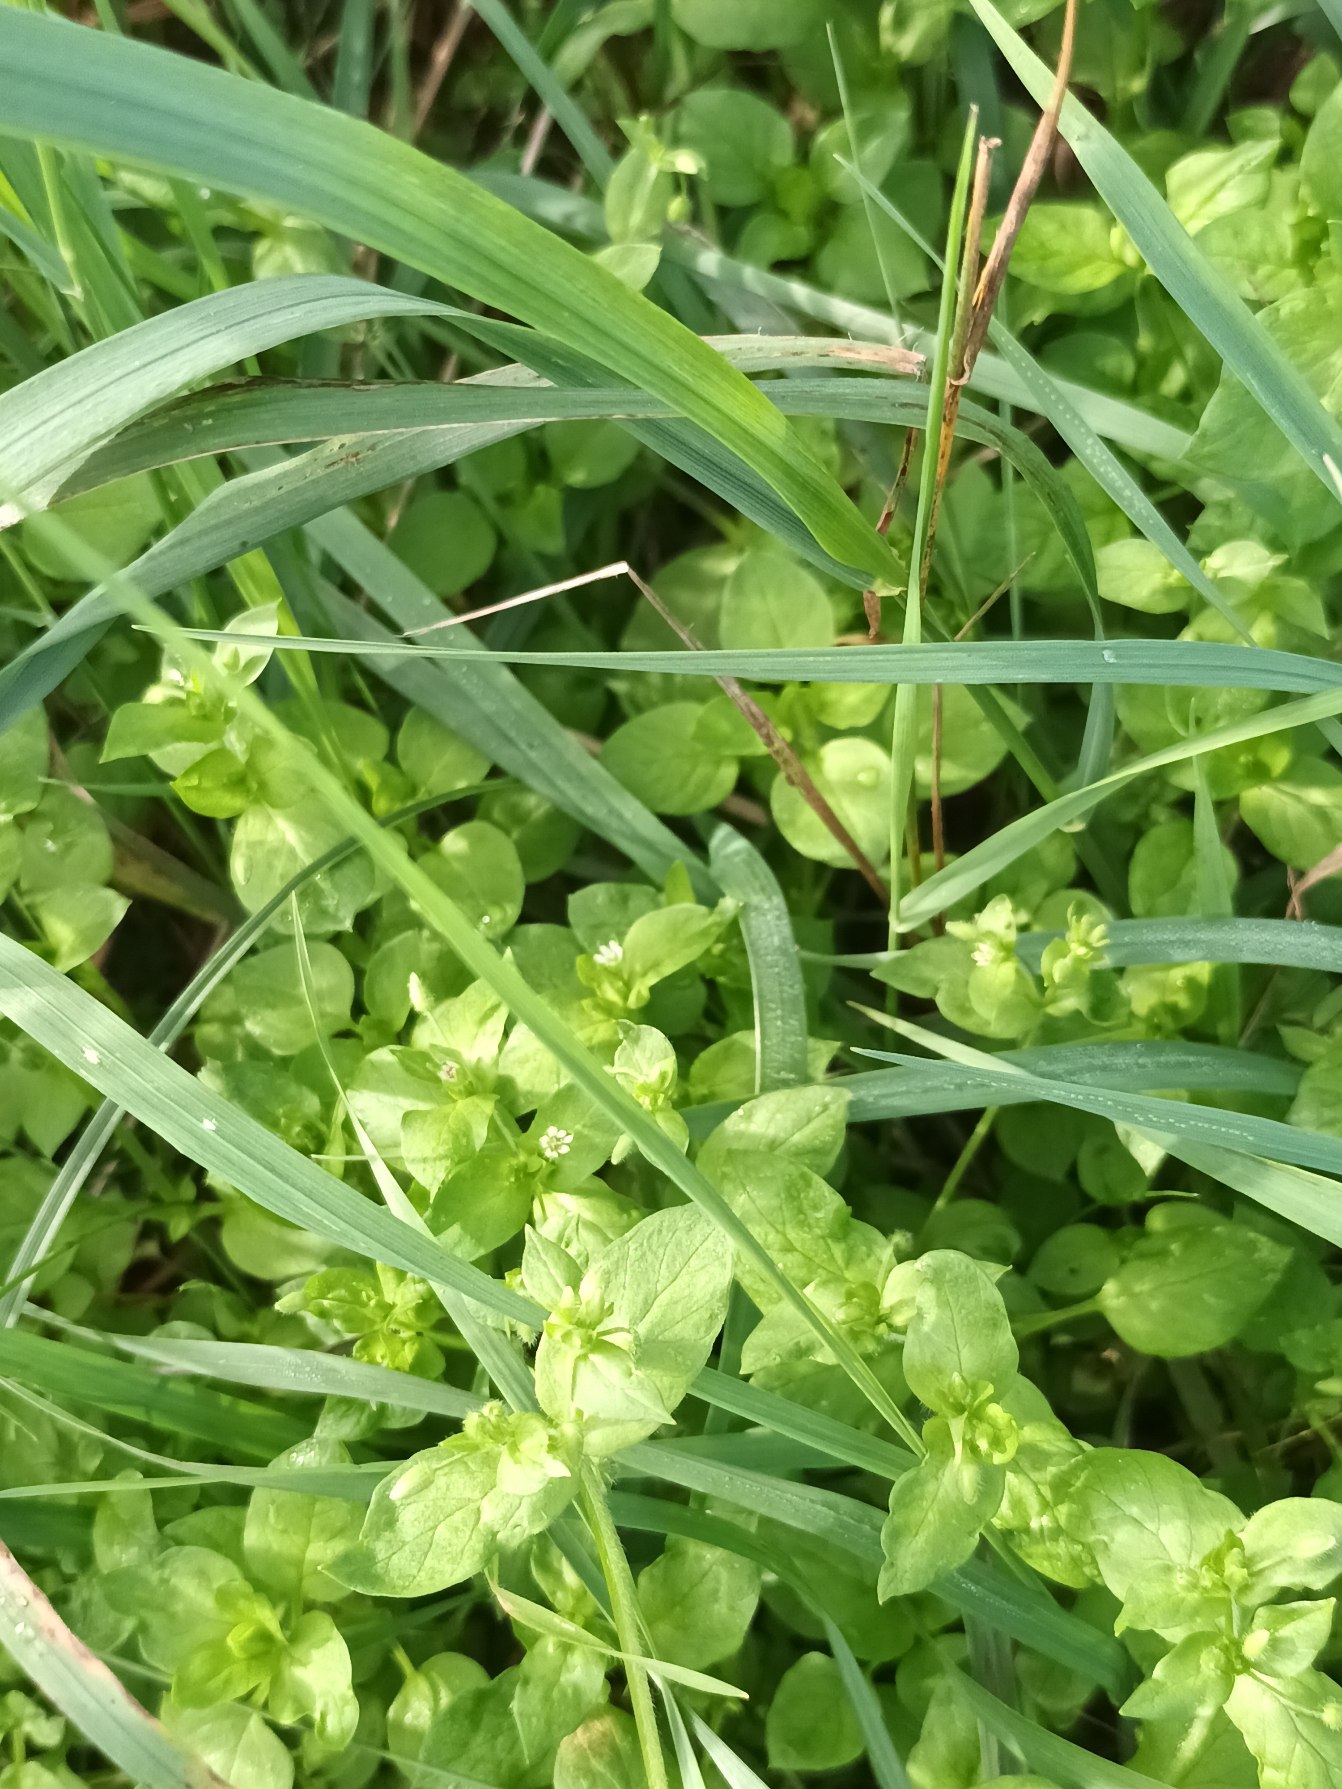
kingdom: Plantae
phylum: Tracheophyta
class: Magnoliopsida
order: Caryophyllales
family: Caryophyllaceae
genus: Stellaria
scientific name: Stellaria media
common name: Almindelig fuglegræs
